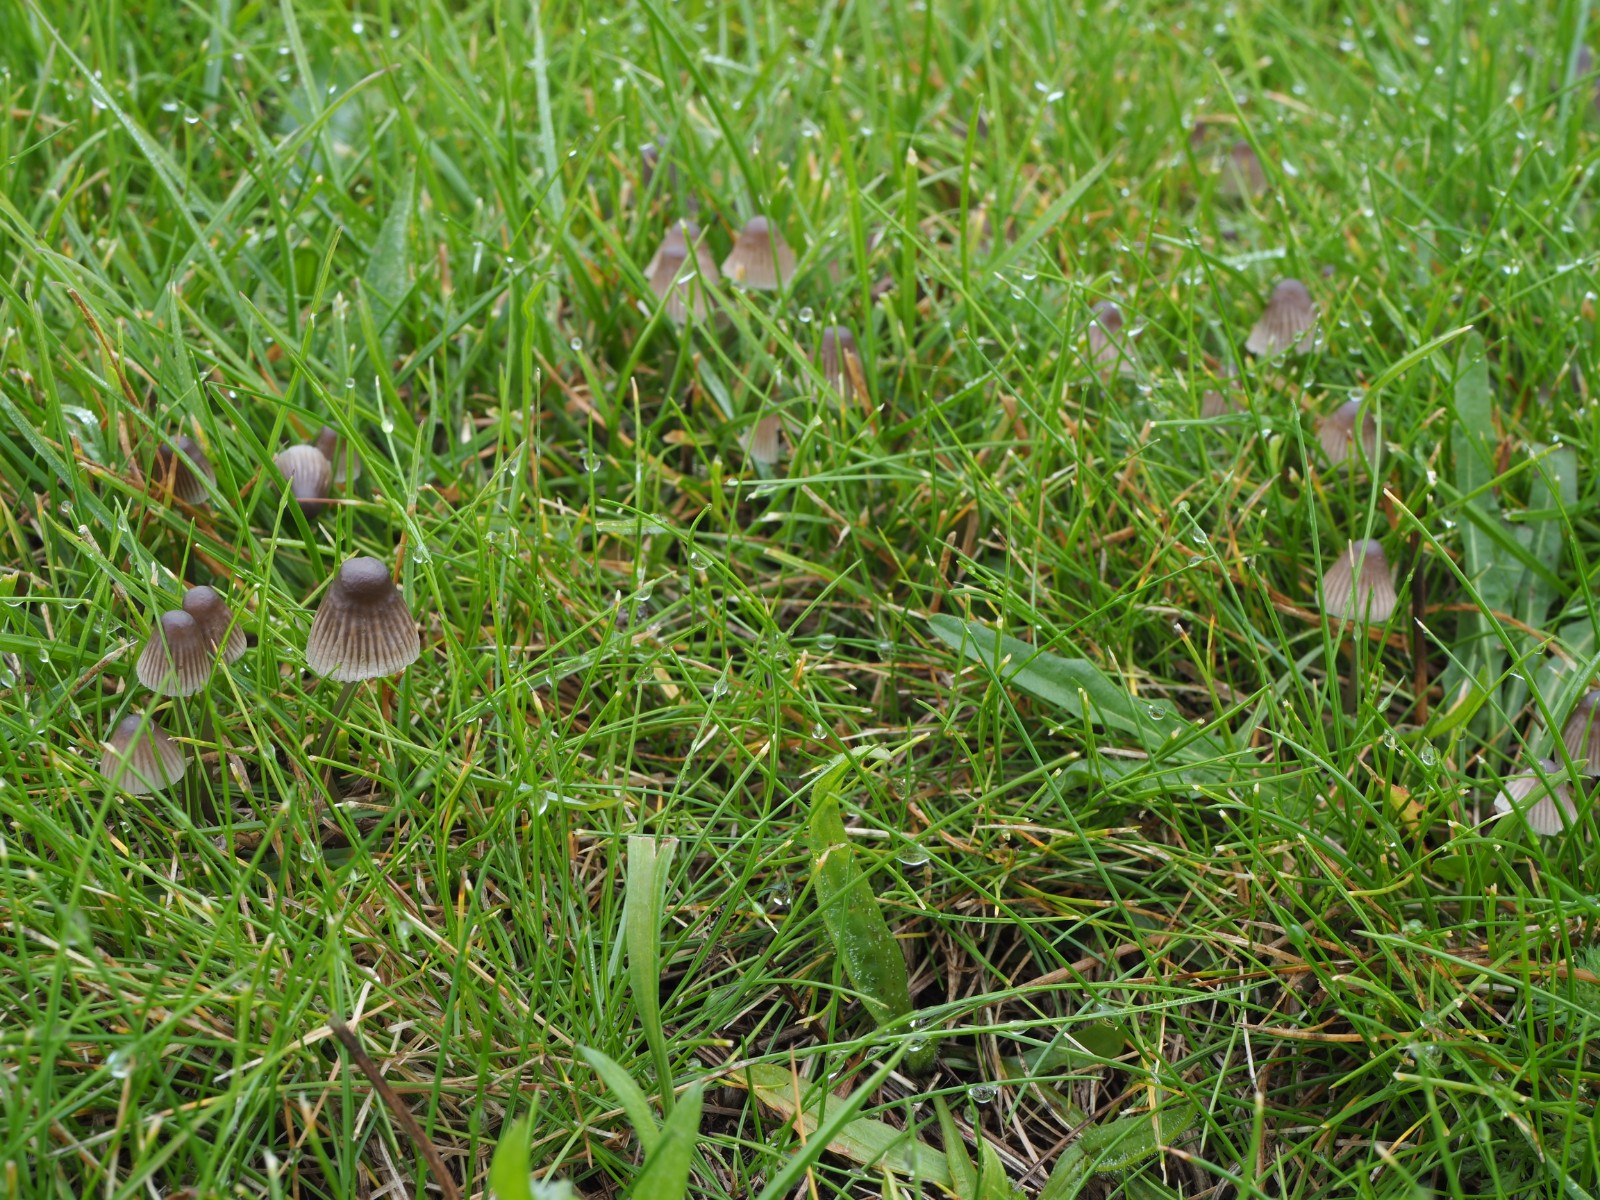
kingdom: Fungi
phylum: Basidiomycota
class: Agaricomycetes
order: Agaricales
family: Mycenaceae
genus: Mycena
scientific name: Mycena aetites
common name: plæne-huesvamp
